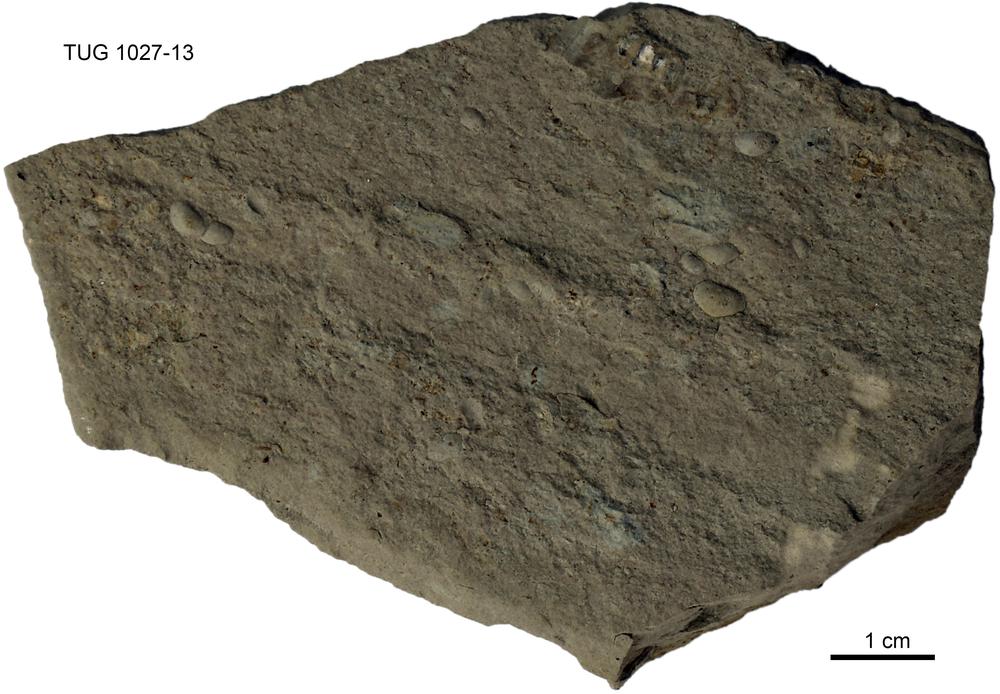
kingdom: Animalia
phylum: Arthropoda
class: Ostracoda
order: Leperditicopida
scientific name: Leperditicopida
